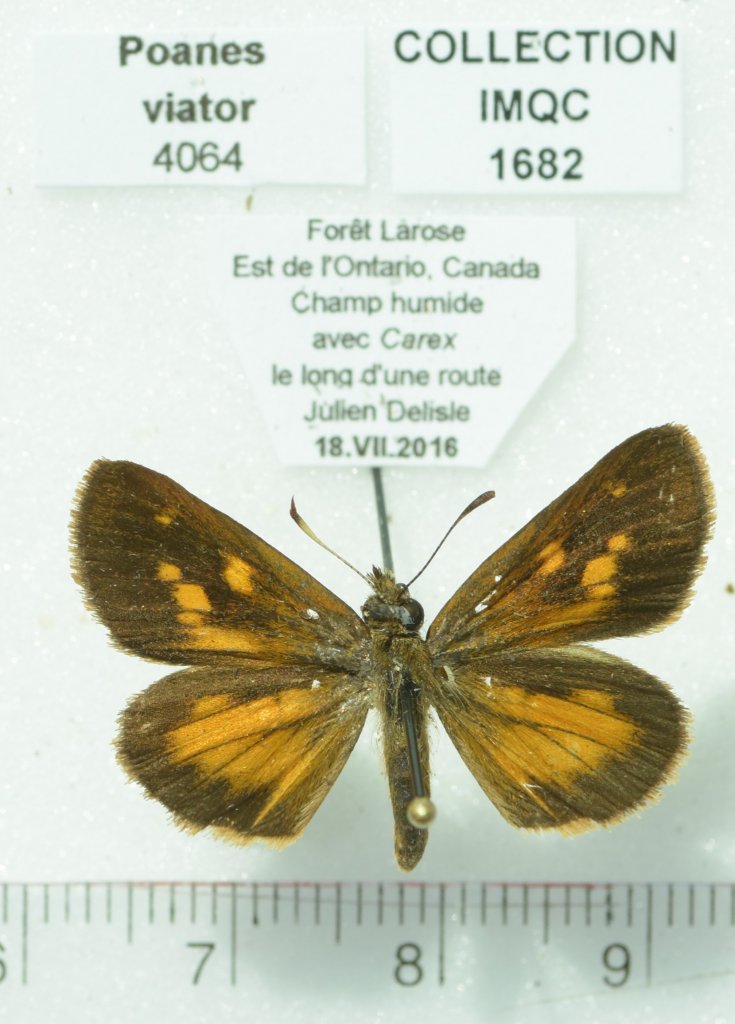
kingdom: Animalia
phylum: Arthropoda
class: Insecta
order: Lepidoptera
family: Hesperiidae
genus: Poanes
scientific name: Poanes viator
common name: Broad-winged Skipper
